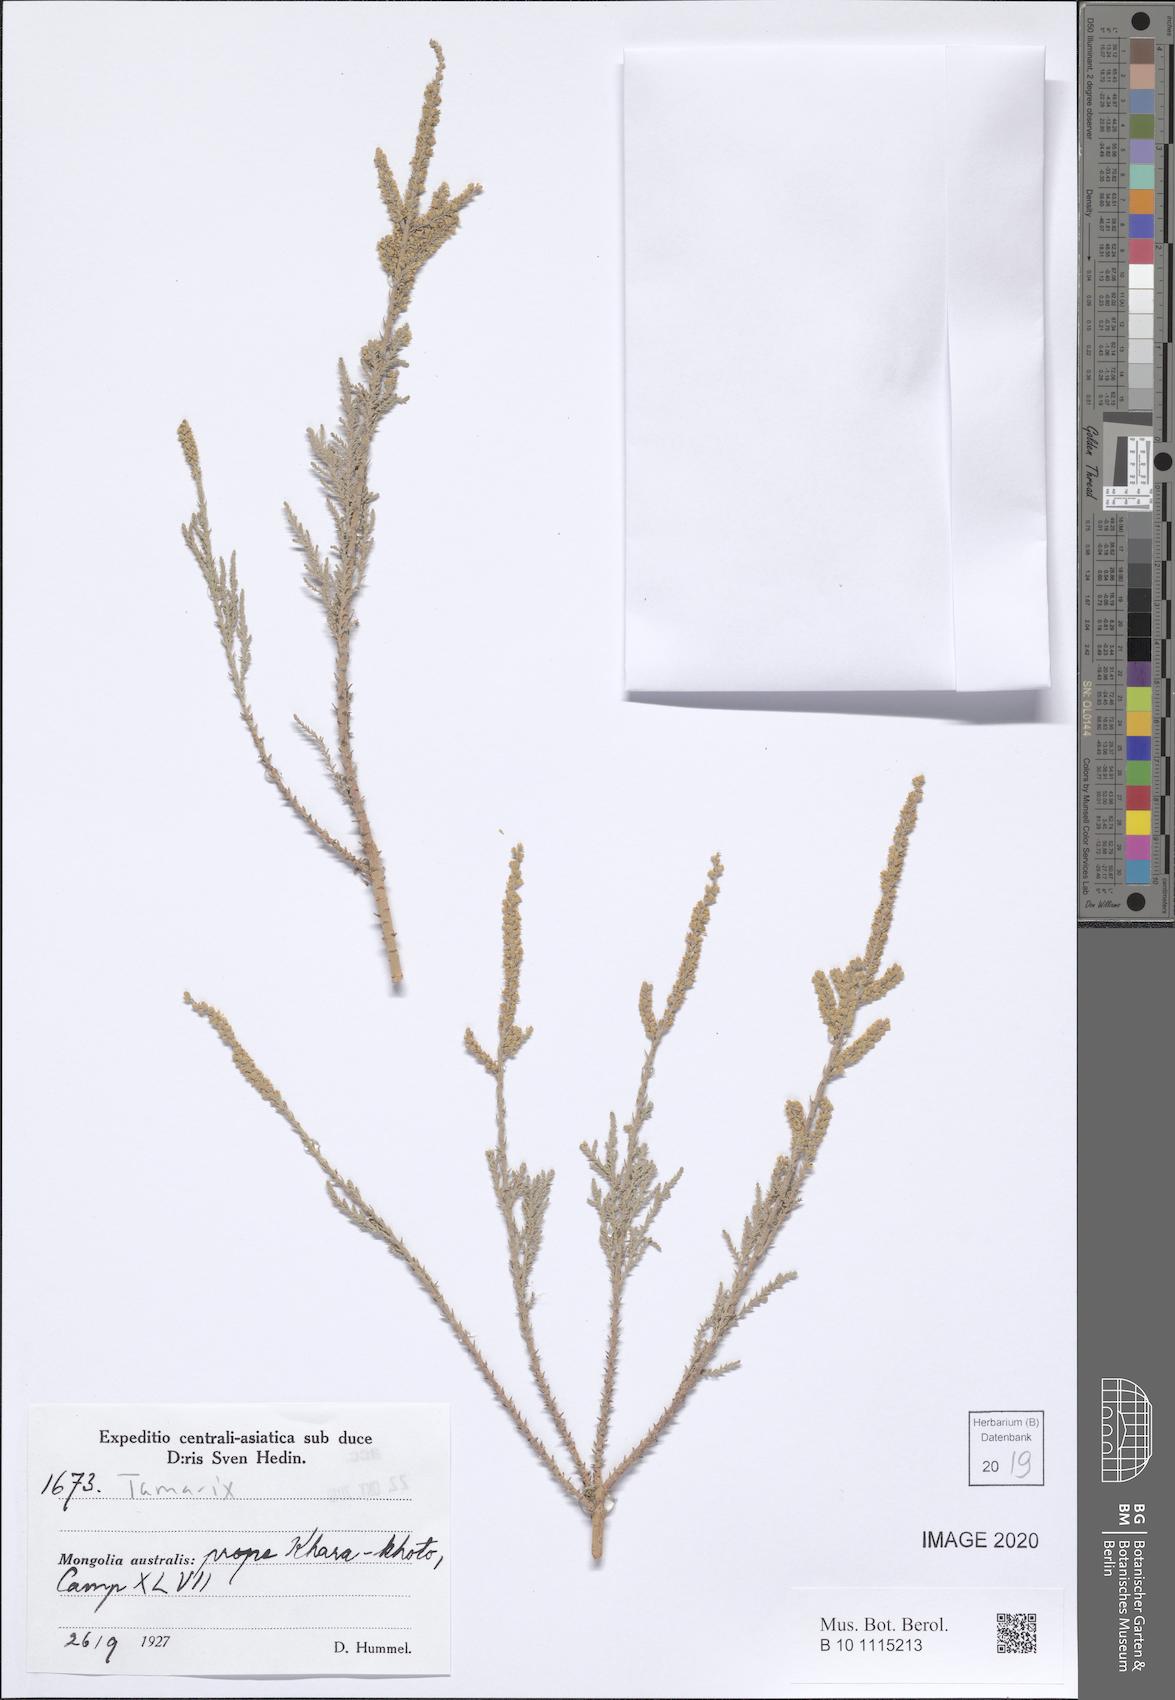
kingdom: Plantae
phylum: Tracheophyta
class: Magnoliopsida
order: Caryophyllales
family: Tamaricaceae
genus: Tamarix
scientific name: Tamarix
